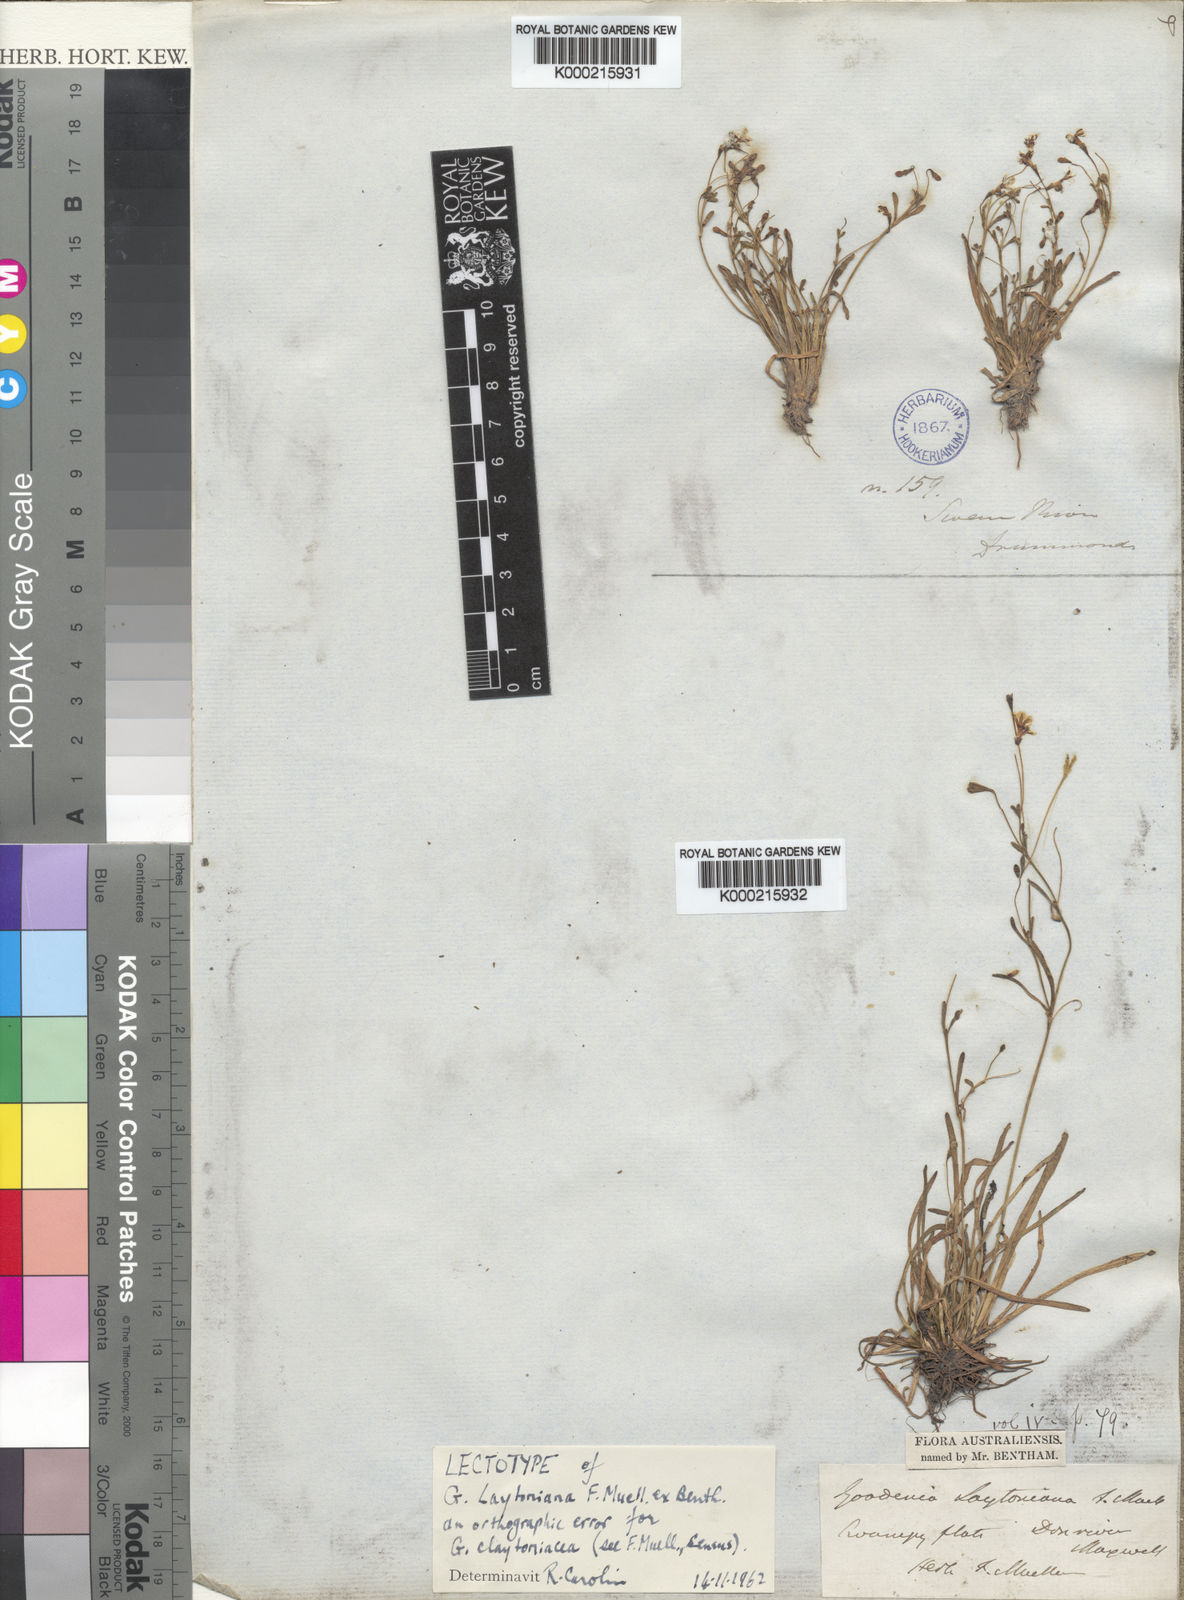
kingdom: Plantae
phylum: Tracheophyta
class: Magnoliopsida
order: Asterales
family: Goodeniaceae
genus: Goodenia
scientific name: Goodenia claytoniacea
